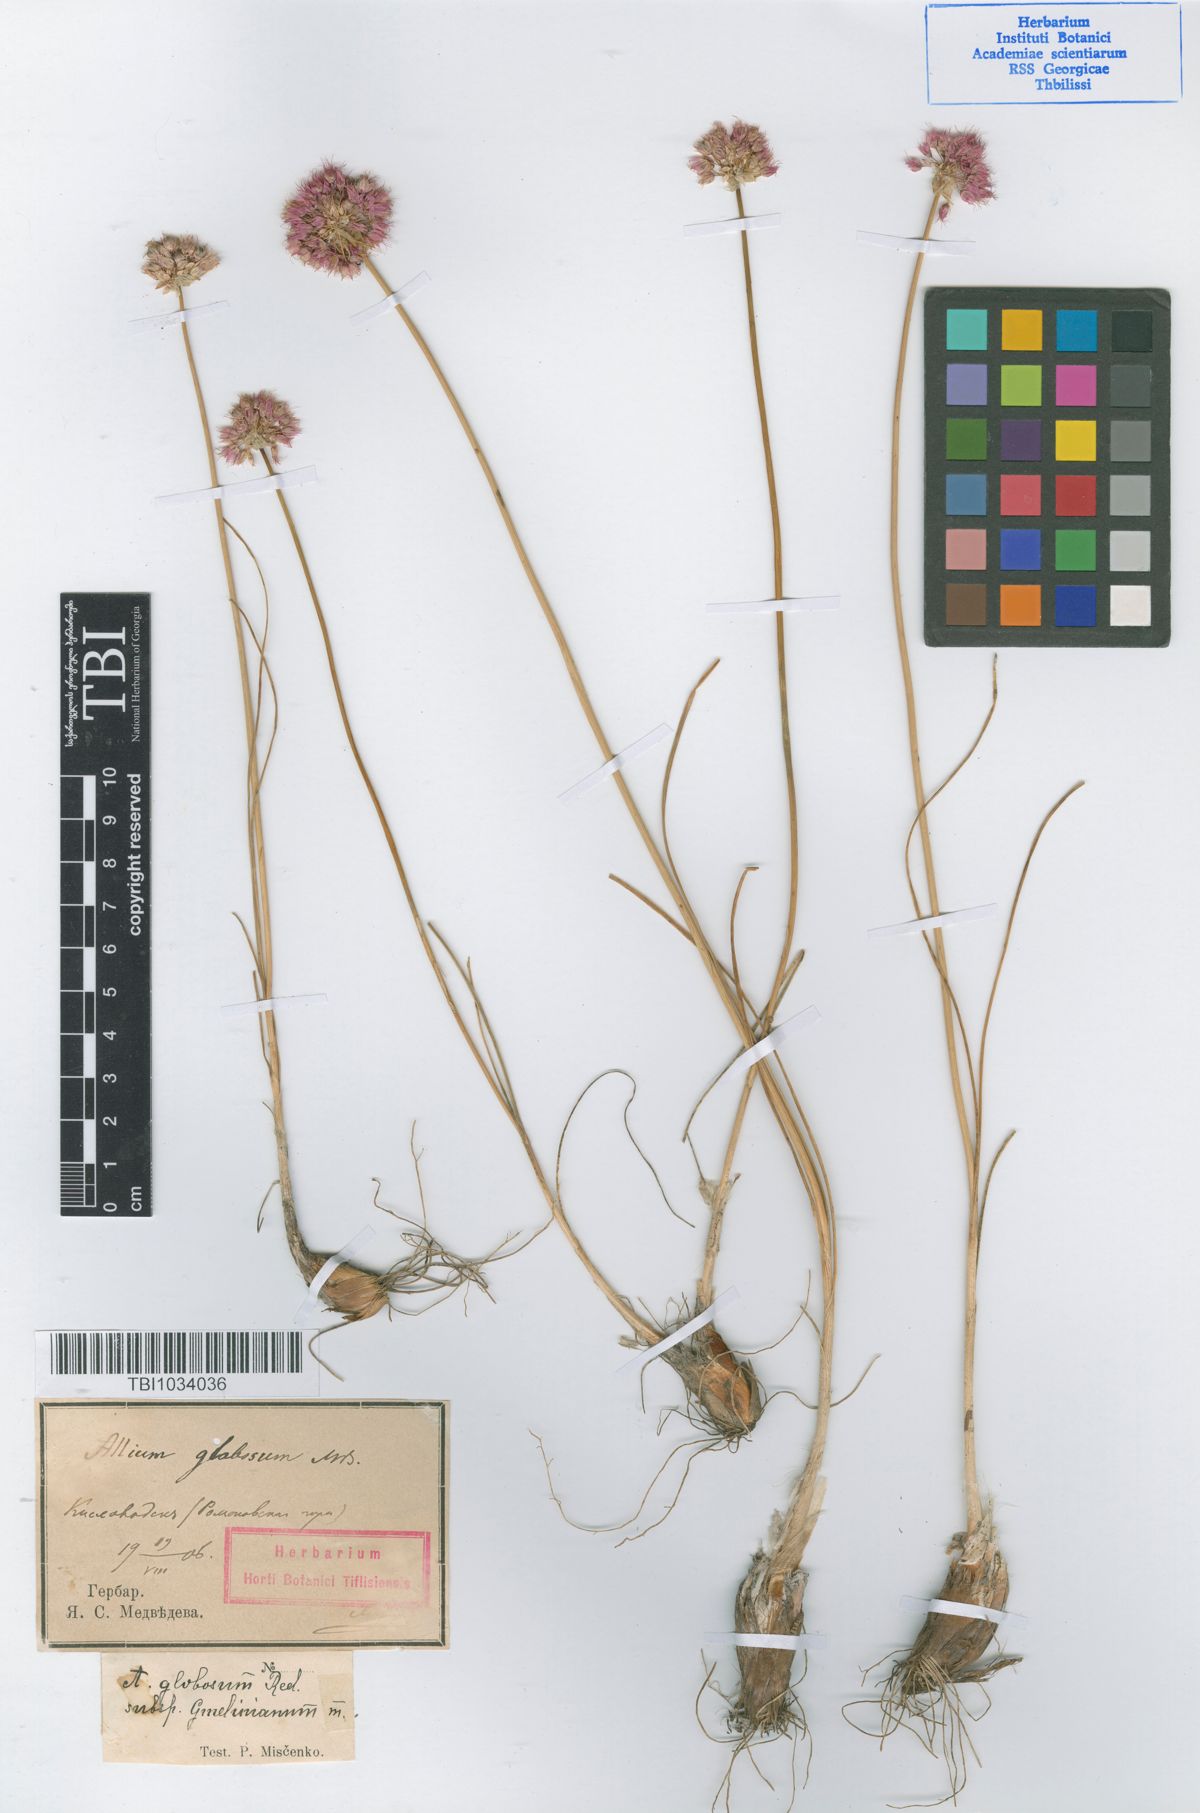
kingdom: Plantae
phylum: Tracheophyta
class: Liliopsida
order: Asparagales
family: Amaryllidaceae
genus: Allium
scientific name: Allium saxatile
